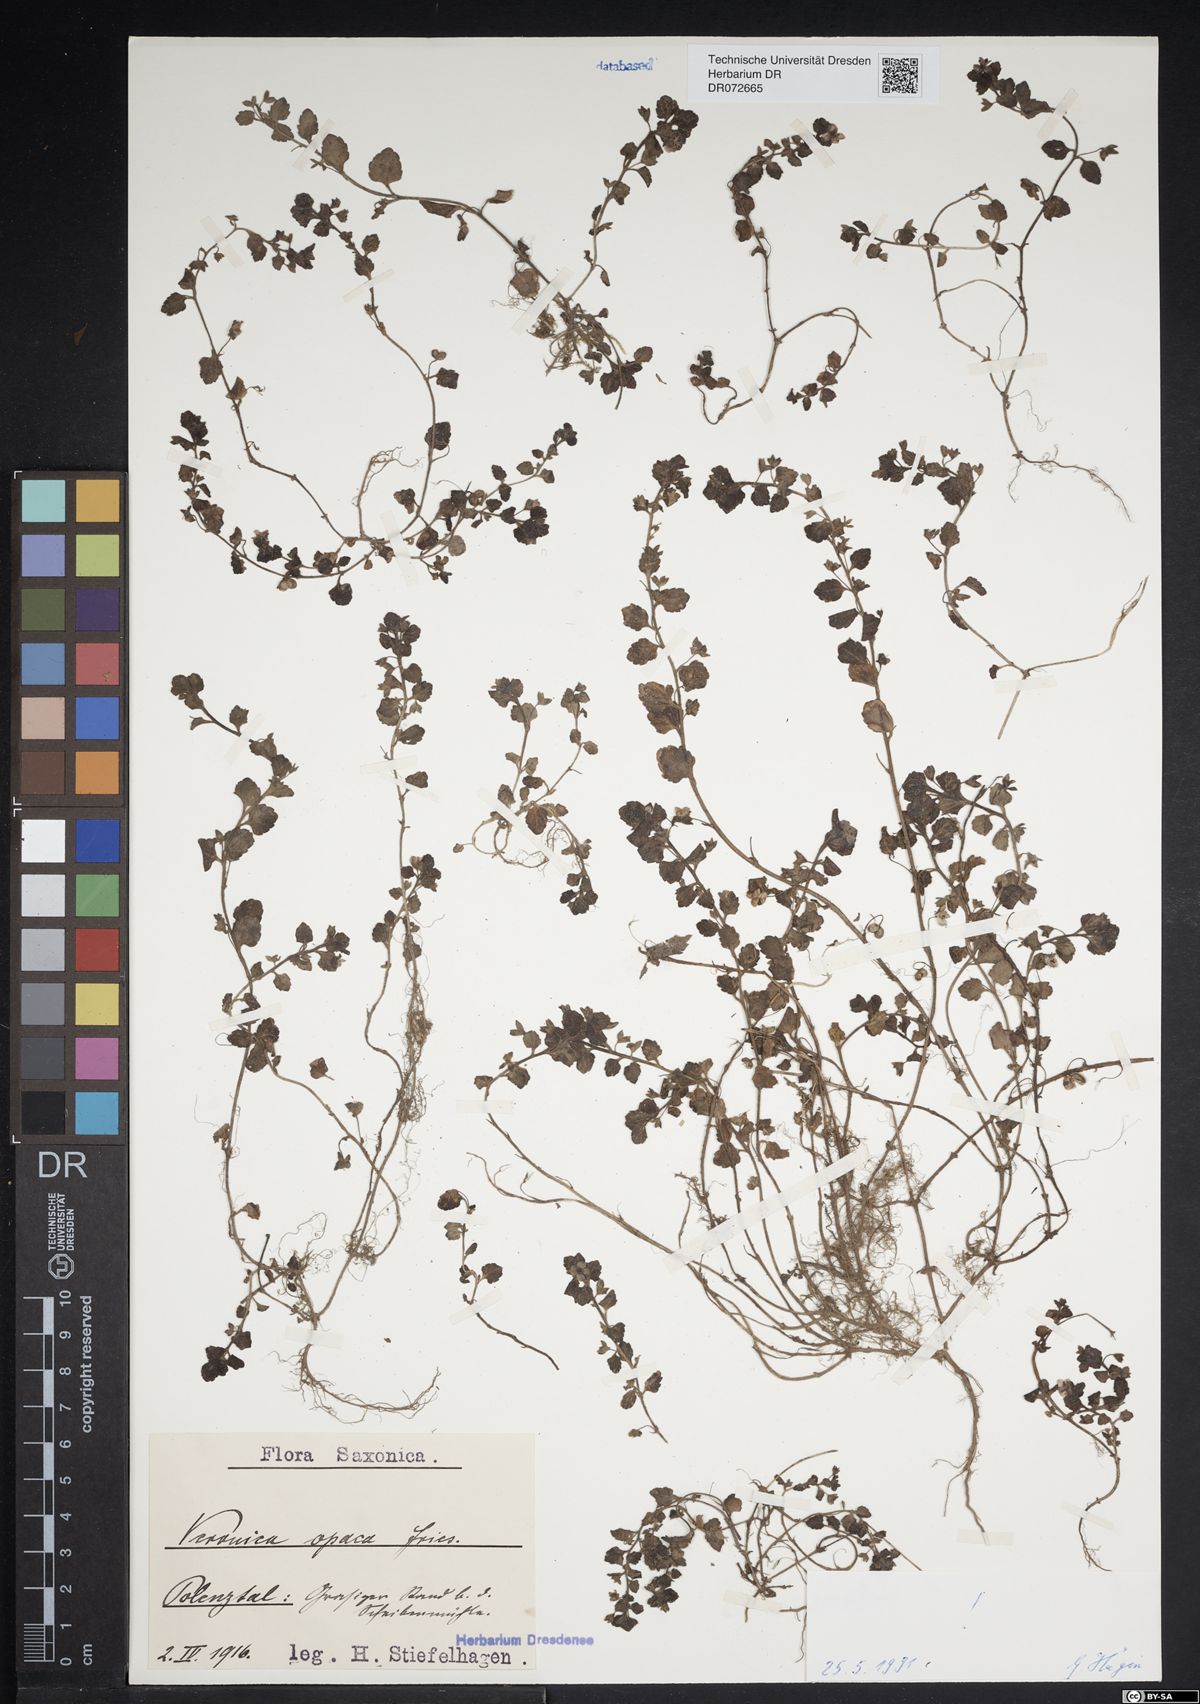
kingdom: Plantae
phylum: Tracheophyta
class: Magnoliopsida
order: Lamiales
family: Plantaginaceae
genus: Veronica
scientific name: Veronica opaca
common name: Dark speedwell
